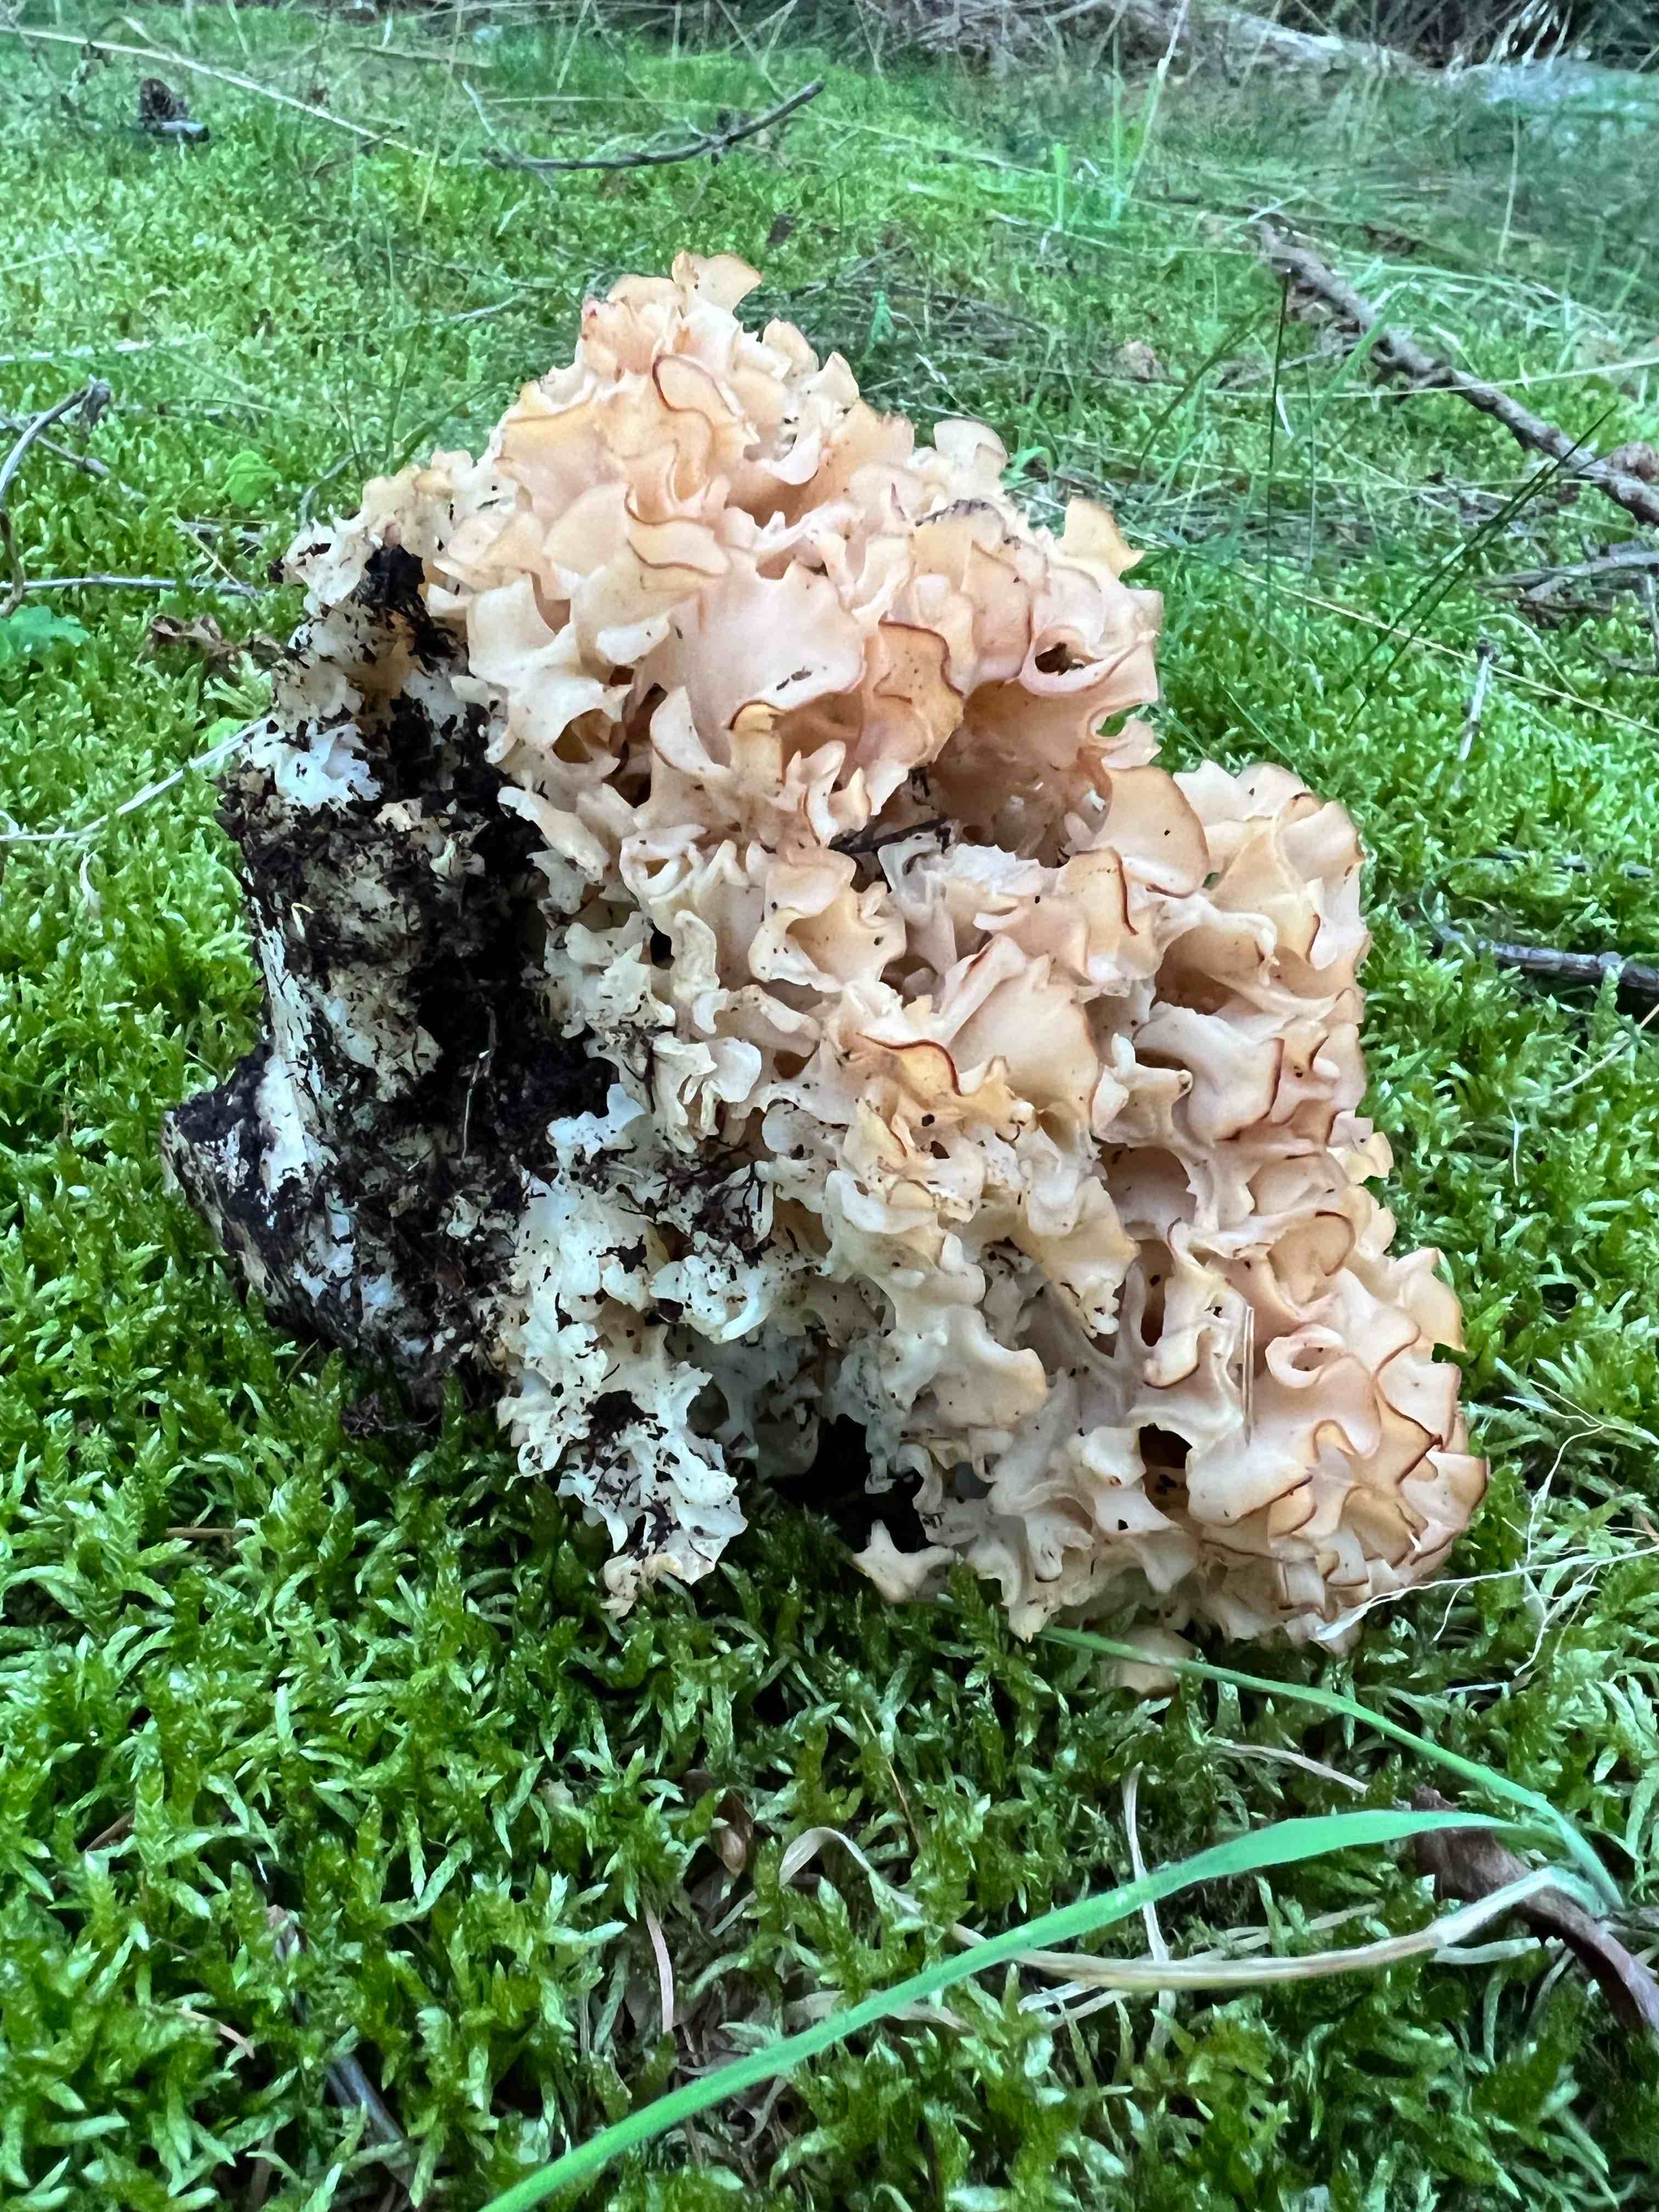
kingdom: Fungi
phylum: Basidiomycota
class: Agaricomycetes
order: Polyporales
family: Sparassidaceae
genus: Sparassis
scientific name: Sparassis crispa
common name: kruset blomkålssvamp
